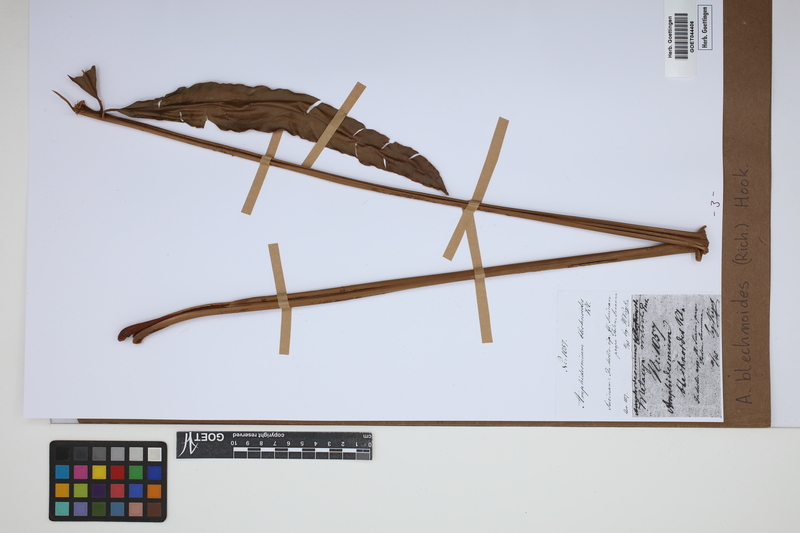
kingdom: Plantae
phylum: Tracheophyta
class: Polypodiopsida
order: Cyatheales
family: Metaxyaceae
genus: Metaxya
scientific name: Metaxya rostrata
